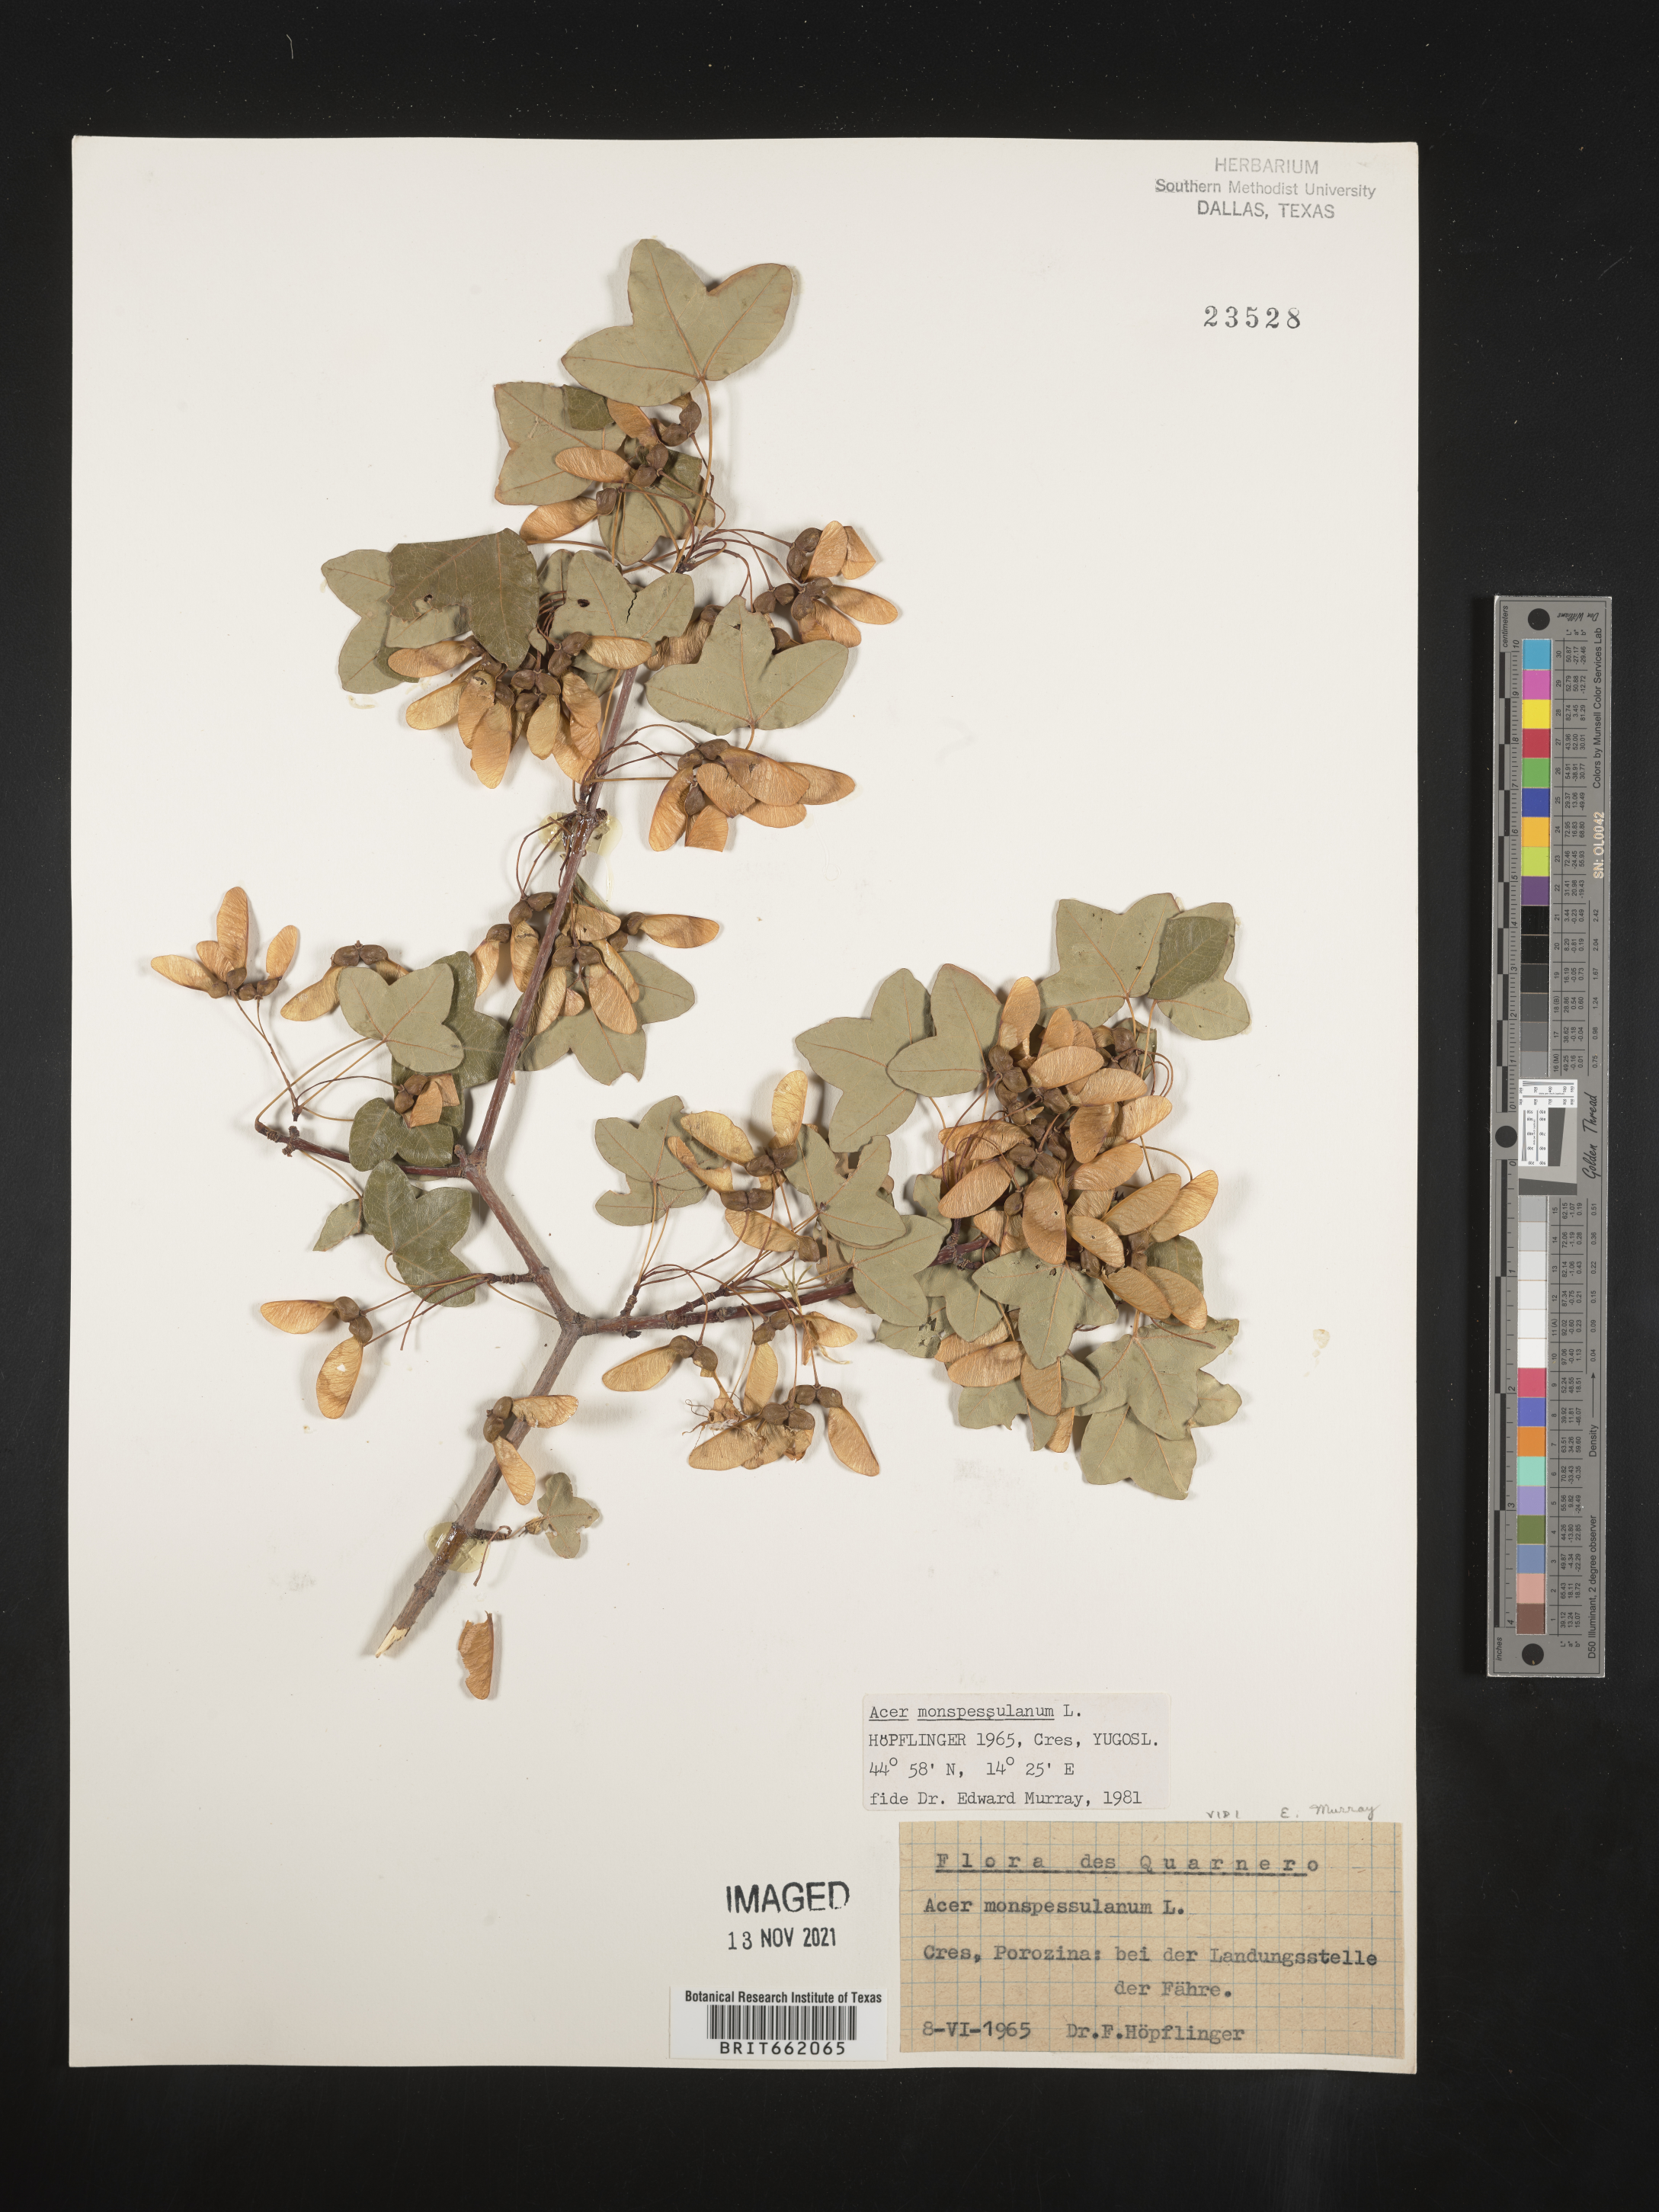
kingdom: Plantae
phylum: Tracheophyta
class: Magnoliopsida
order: Sapindales
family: Sapindaceae
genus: Acer
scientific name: Acer
